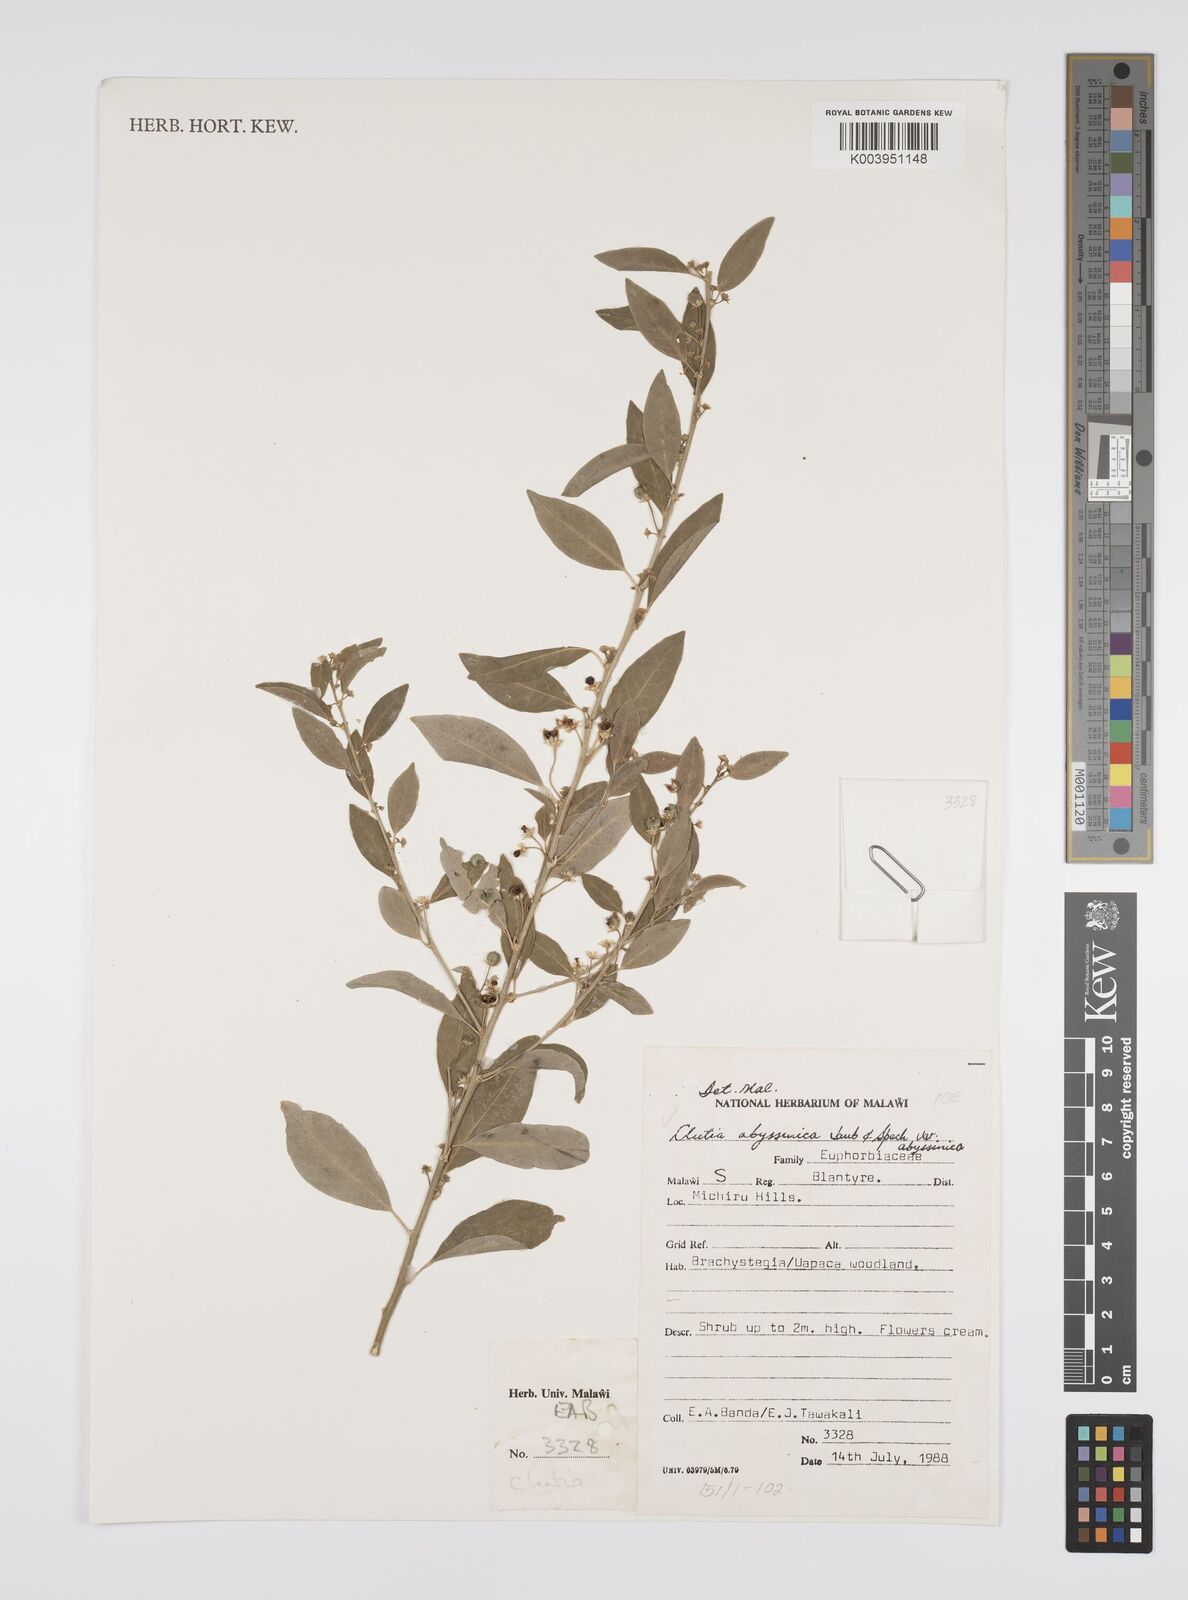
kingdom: Plantae
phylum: Tracheophyta
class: Magnoliopsida
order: Malpighiales
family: Peraceae
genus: Clutia
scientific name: Clutia abyssinica
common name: Large lightning bush
